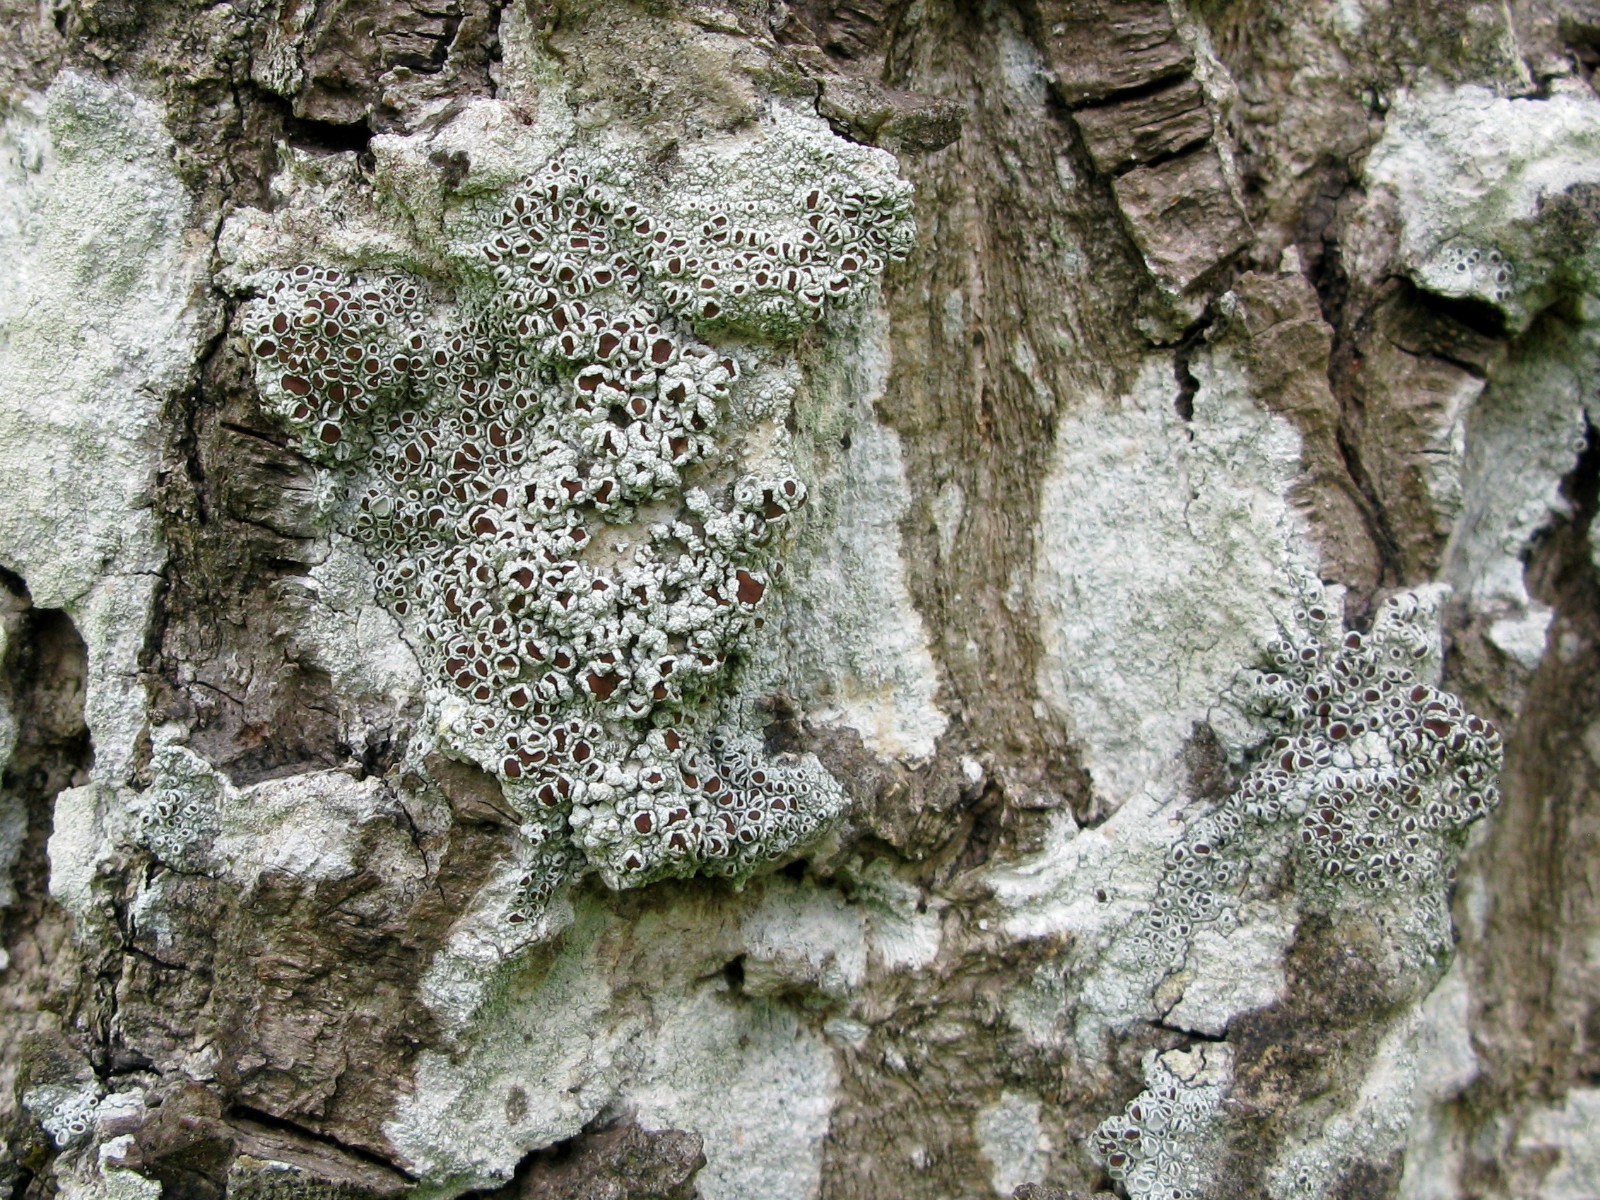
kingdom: Fungi
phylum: Ascomycota
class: Lecanoromycetes
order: Lecanorales
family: Lecanoraceae
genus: Lecanora
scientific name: Lecanora argentata
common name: sølv-kantskivelav
